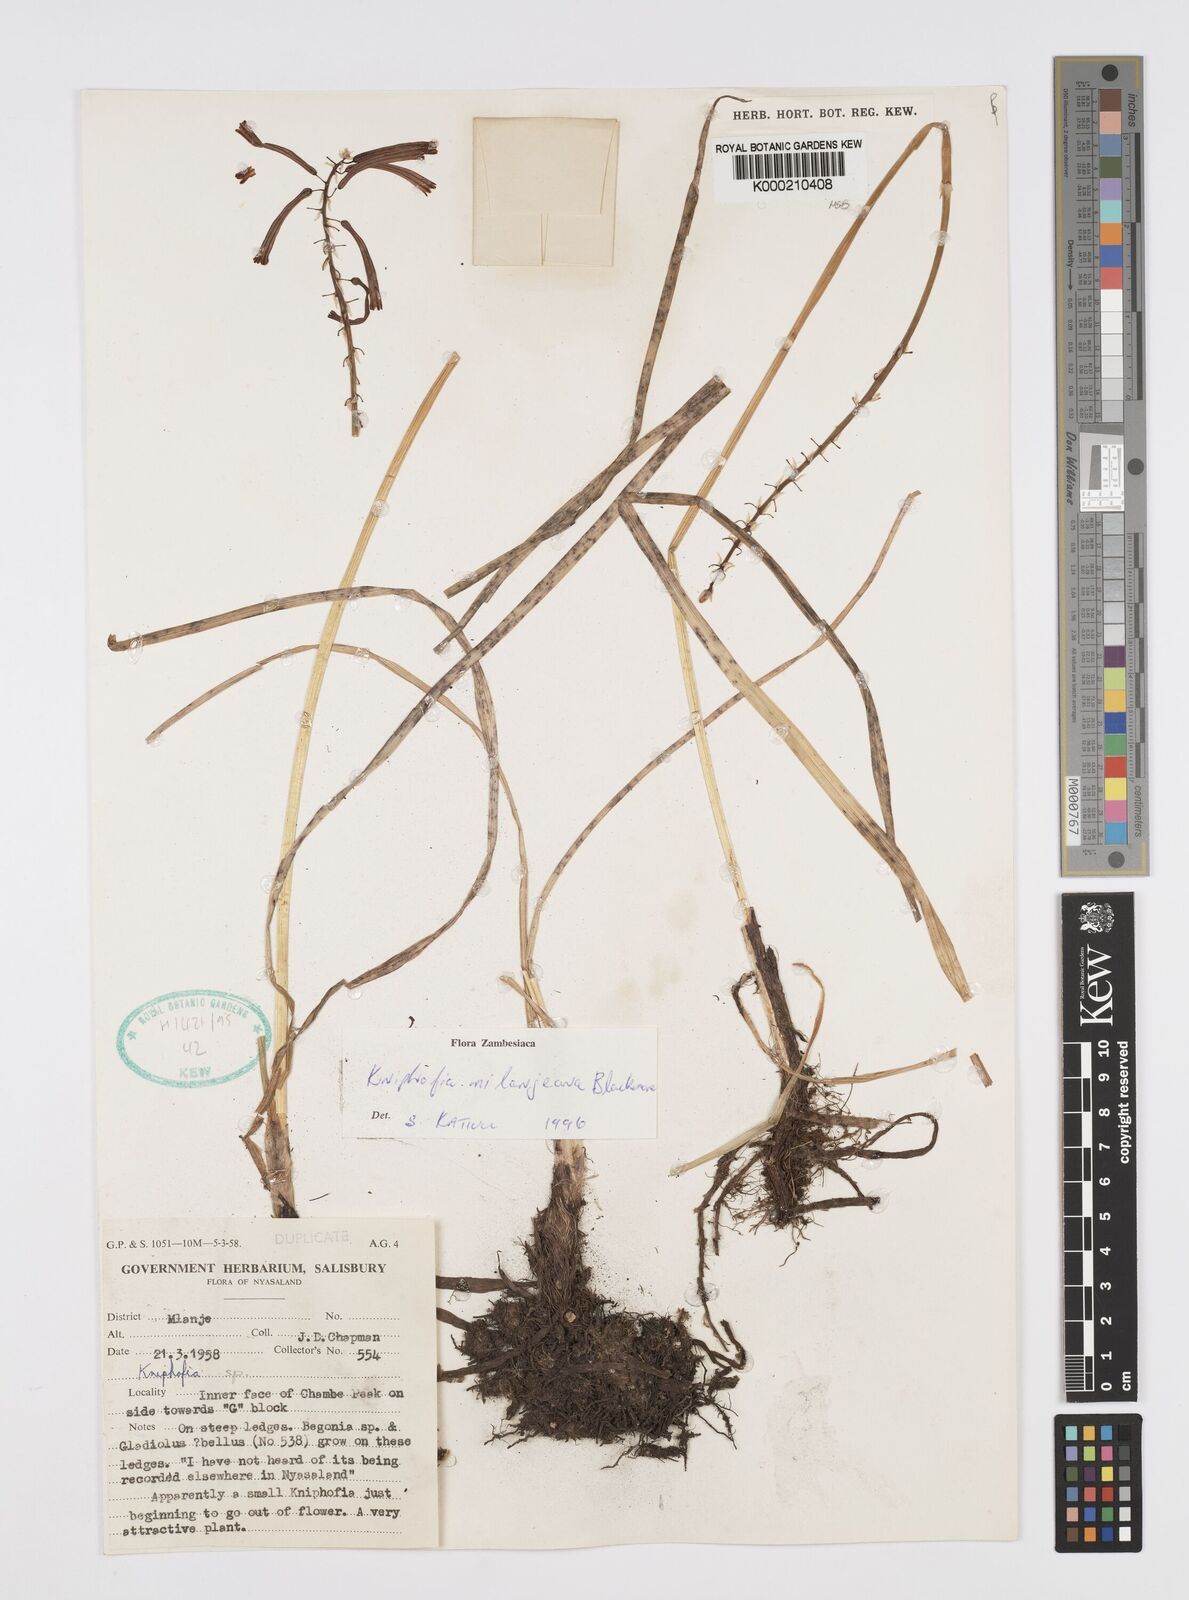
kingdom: Plantae
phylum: Tracheophyta
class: Liliopsida
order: Asparagales
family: Asphodelaceae
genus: Kniphofia
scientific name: Kniphofia mulanjeana
